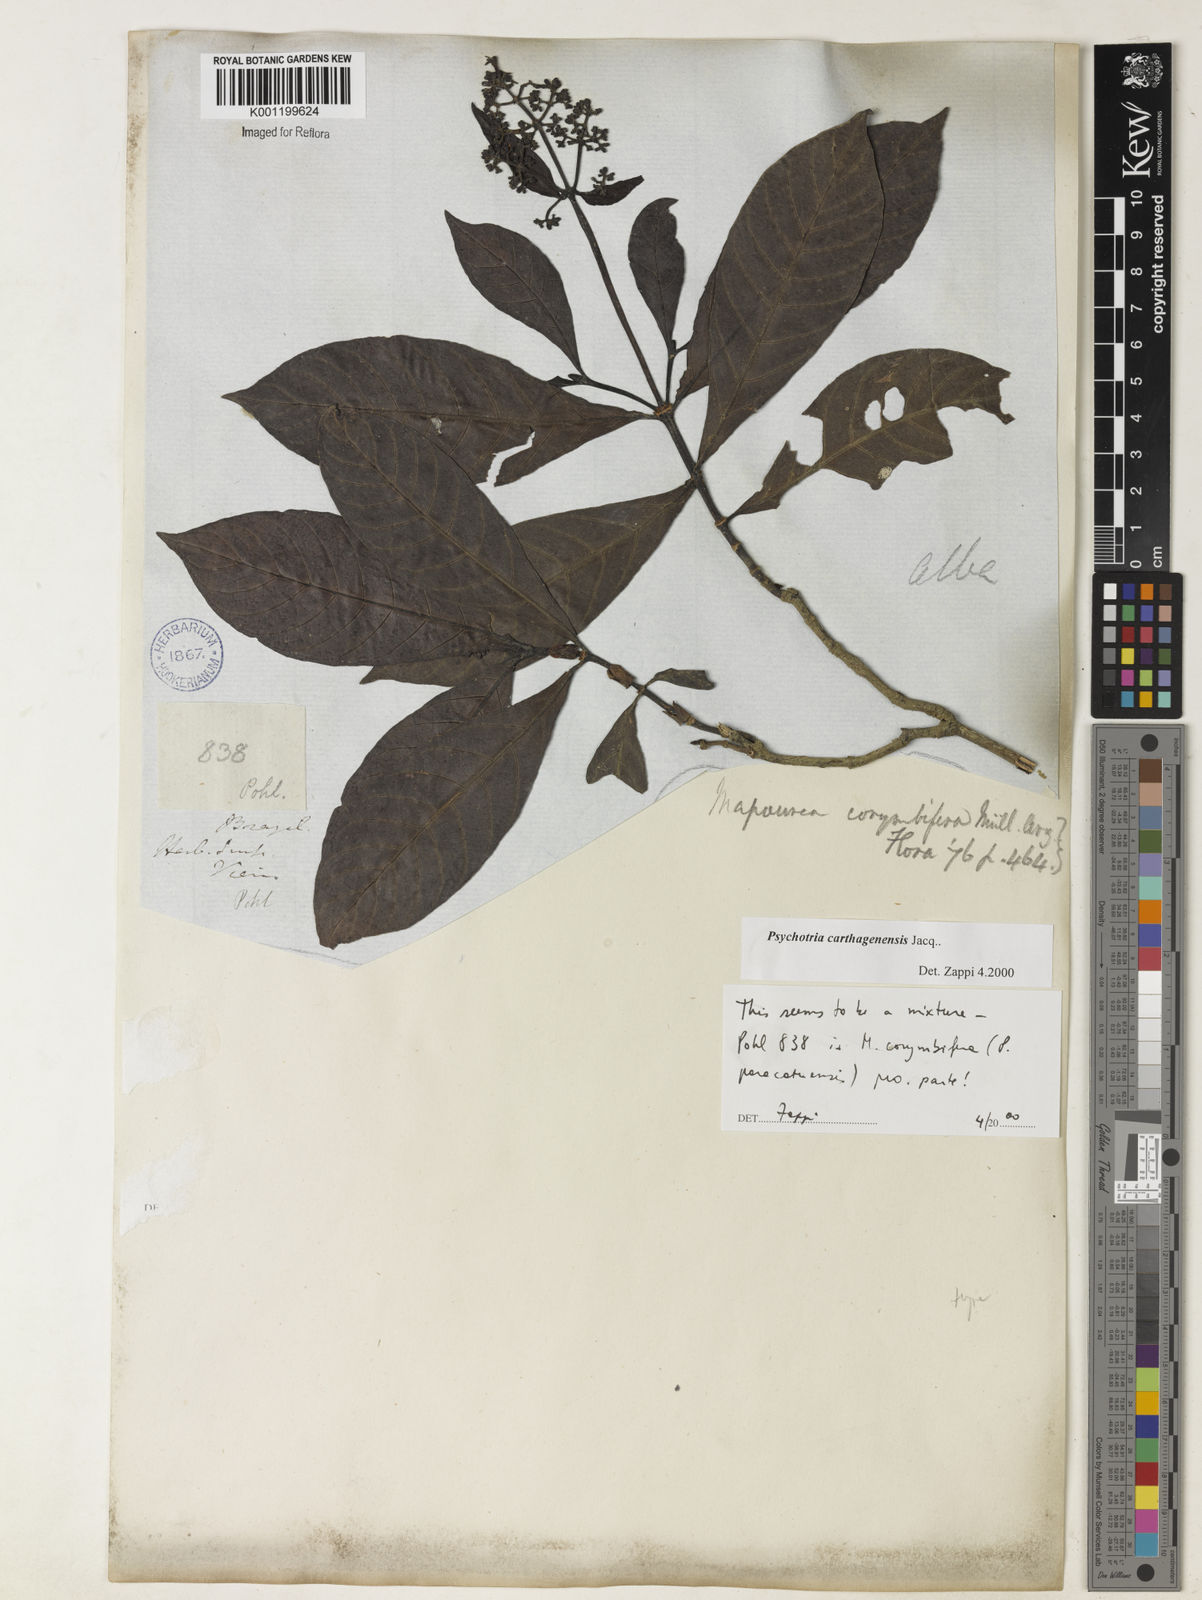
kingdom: Plantae
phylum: Tracheophyta
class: Magnoliopsida
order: Gentianales
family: Rubiaceae
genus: Psychotria
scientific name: Psychotria carthagenensis
